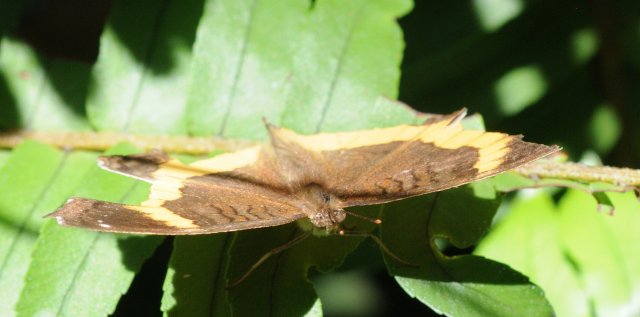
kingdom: Animalia
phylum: Arthropoda
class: Insecta
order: Lepidoptera
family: Nymphalidae
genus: Junonia
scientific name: Junonia terea
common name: Soldier Pansy
